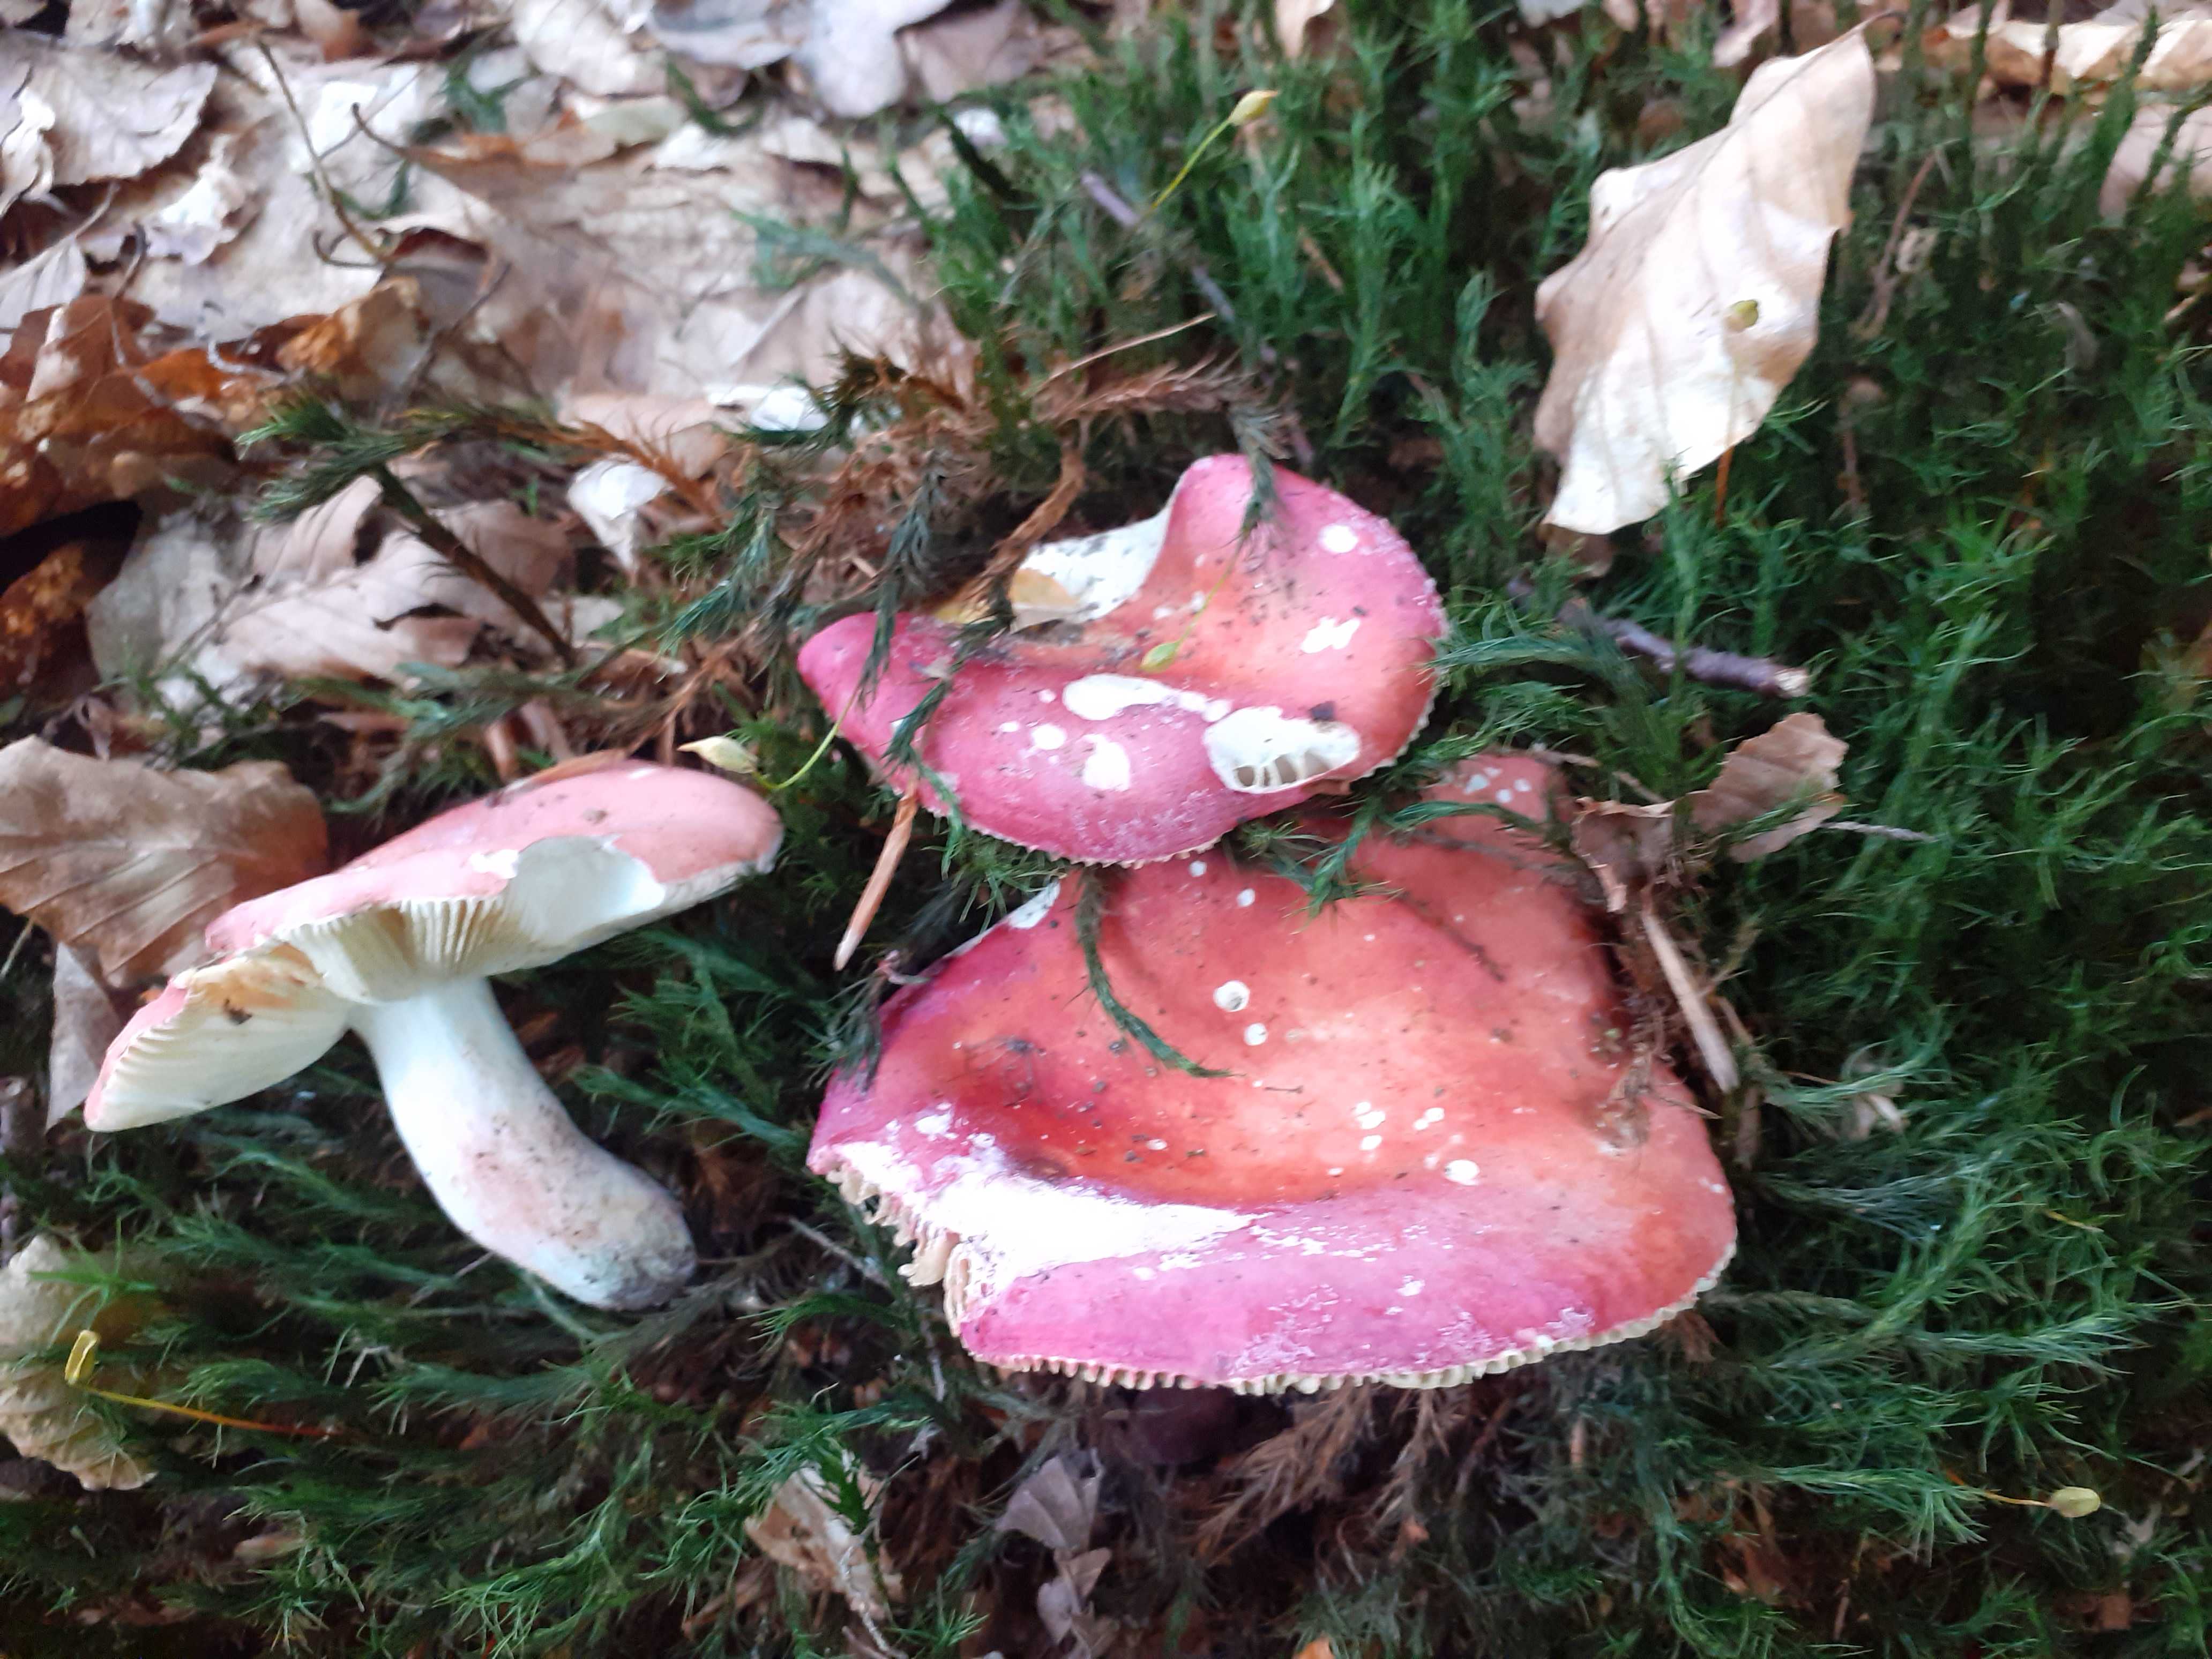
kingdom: Fungi
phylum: Basidiomycota
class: Agaricomycetes
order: Russulales
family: Russulaceae
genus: Russula
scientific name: Russula rosea
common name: fastkødet skørhat
